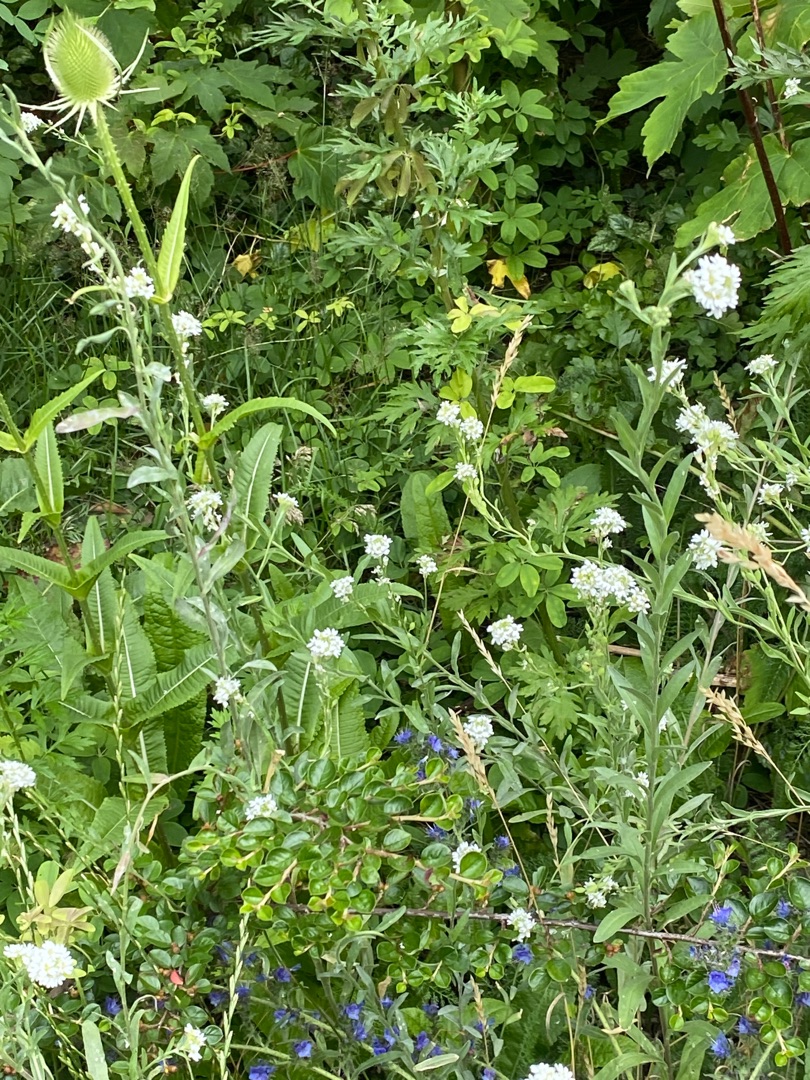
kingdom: Plantae
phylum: Tracheophyta
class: Magnoliopsida
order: Brassicales
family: Brassicaceae
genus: Berteroa
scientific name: Berteroa incana
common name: Kløvplade
